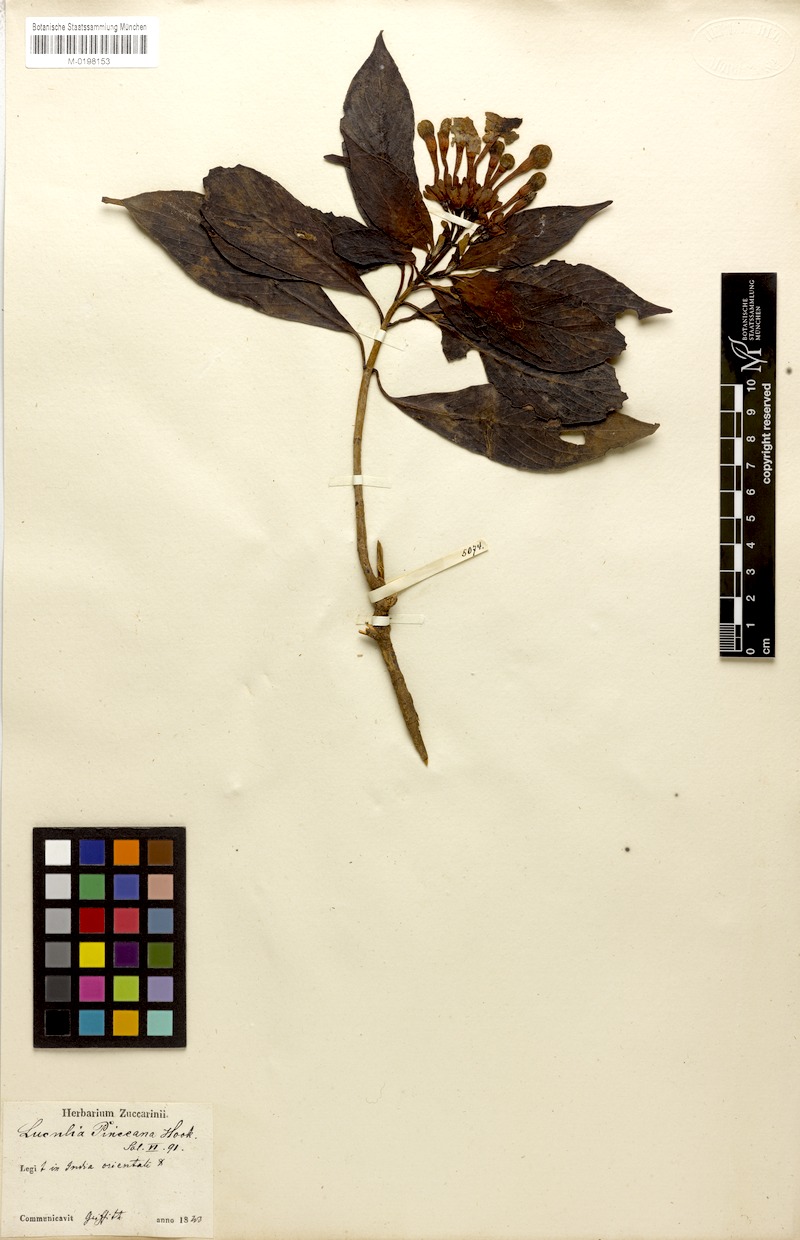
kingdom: Plantae
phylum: Tracheophyta
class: Magnoliopsida
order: Gentianales
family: Rubiaceae
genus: Luculia
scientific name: Luculia pinceana
